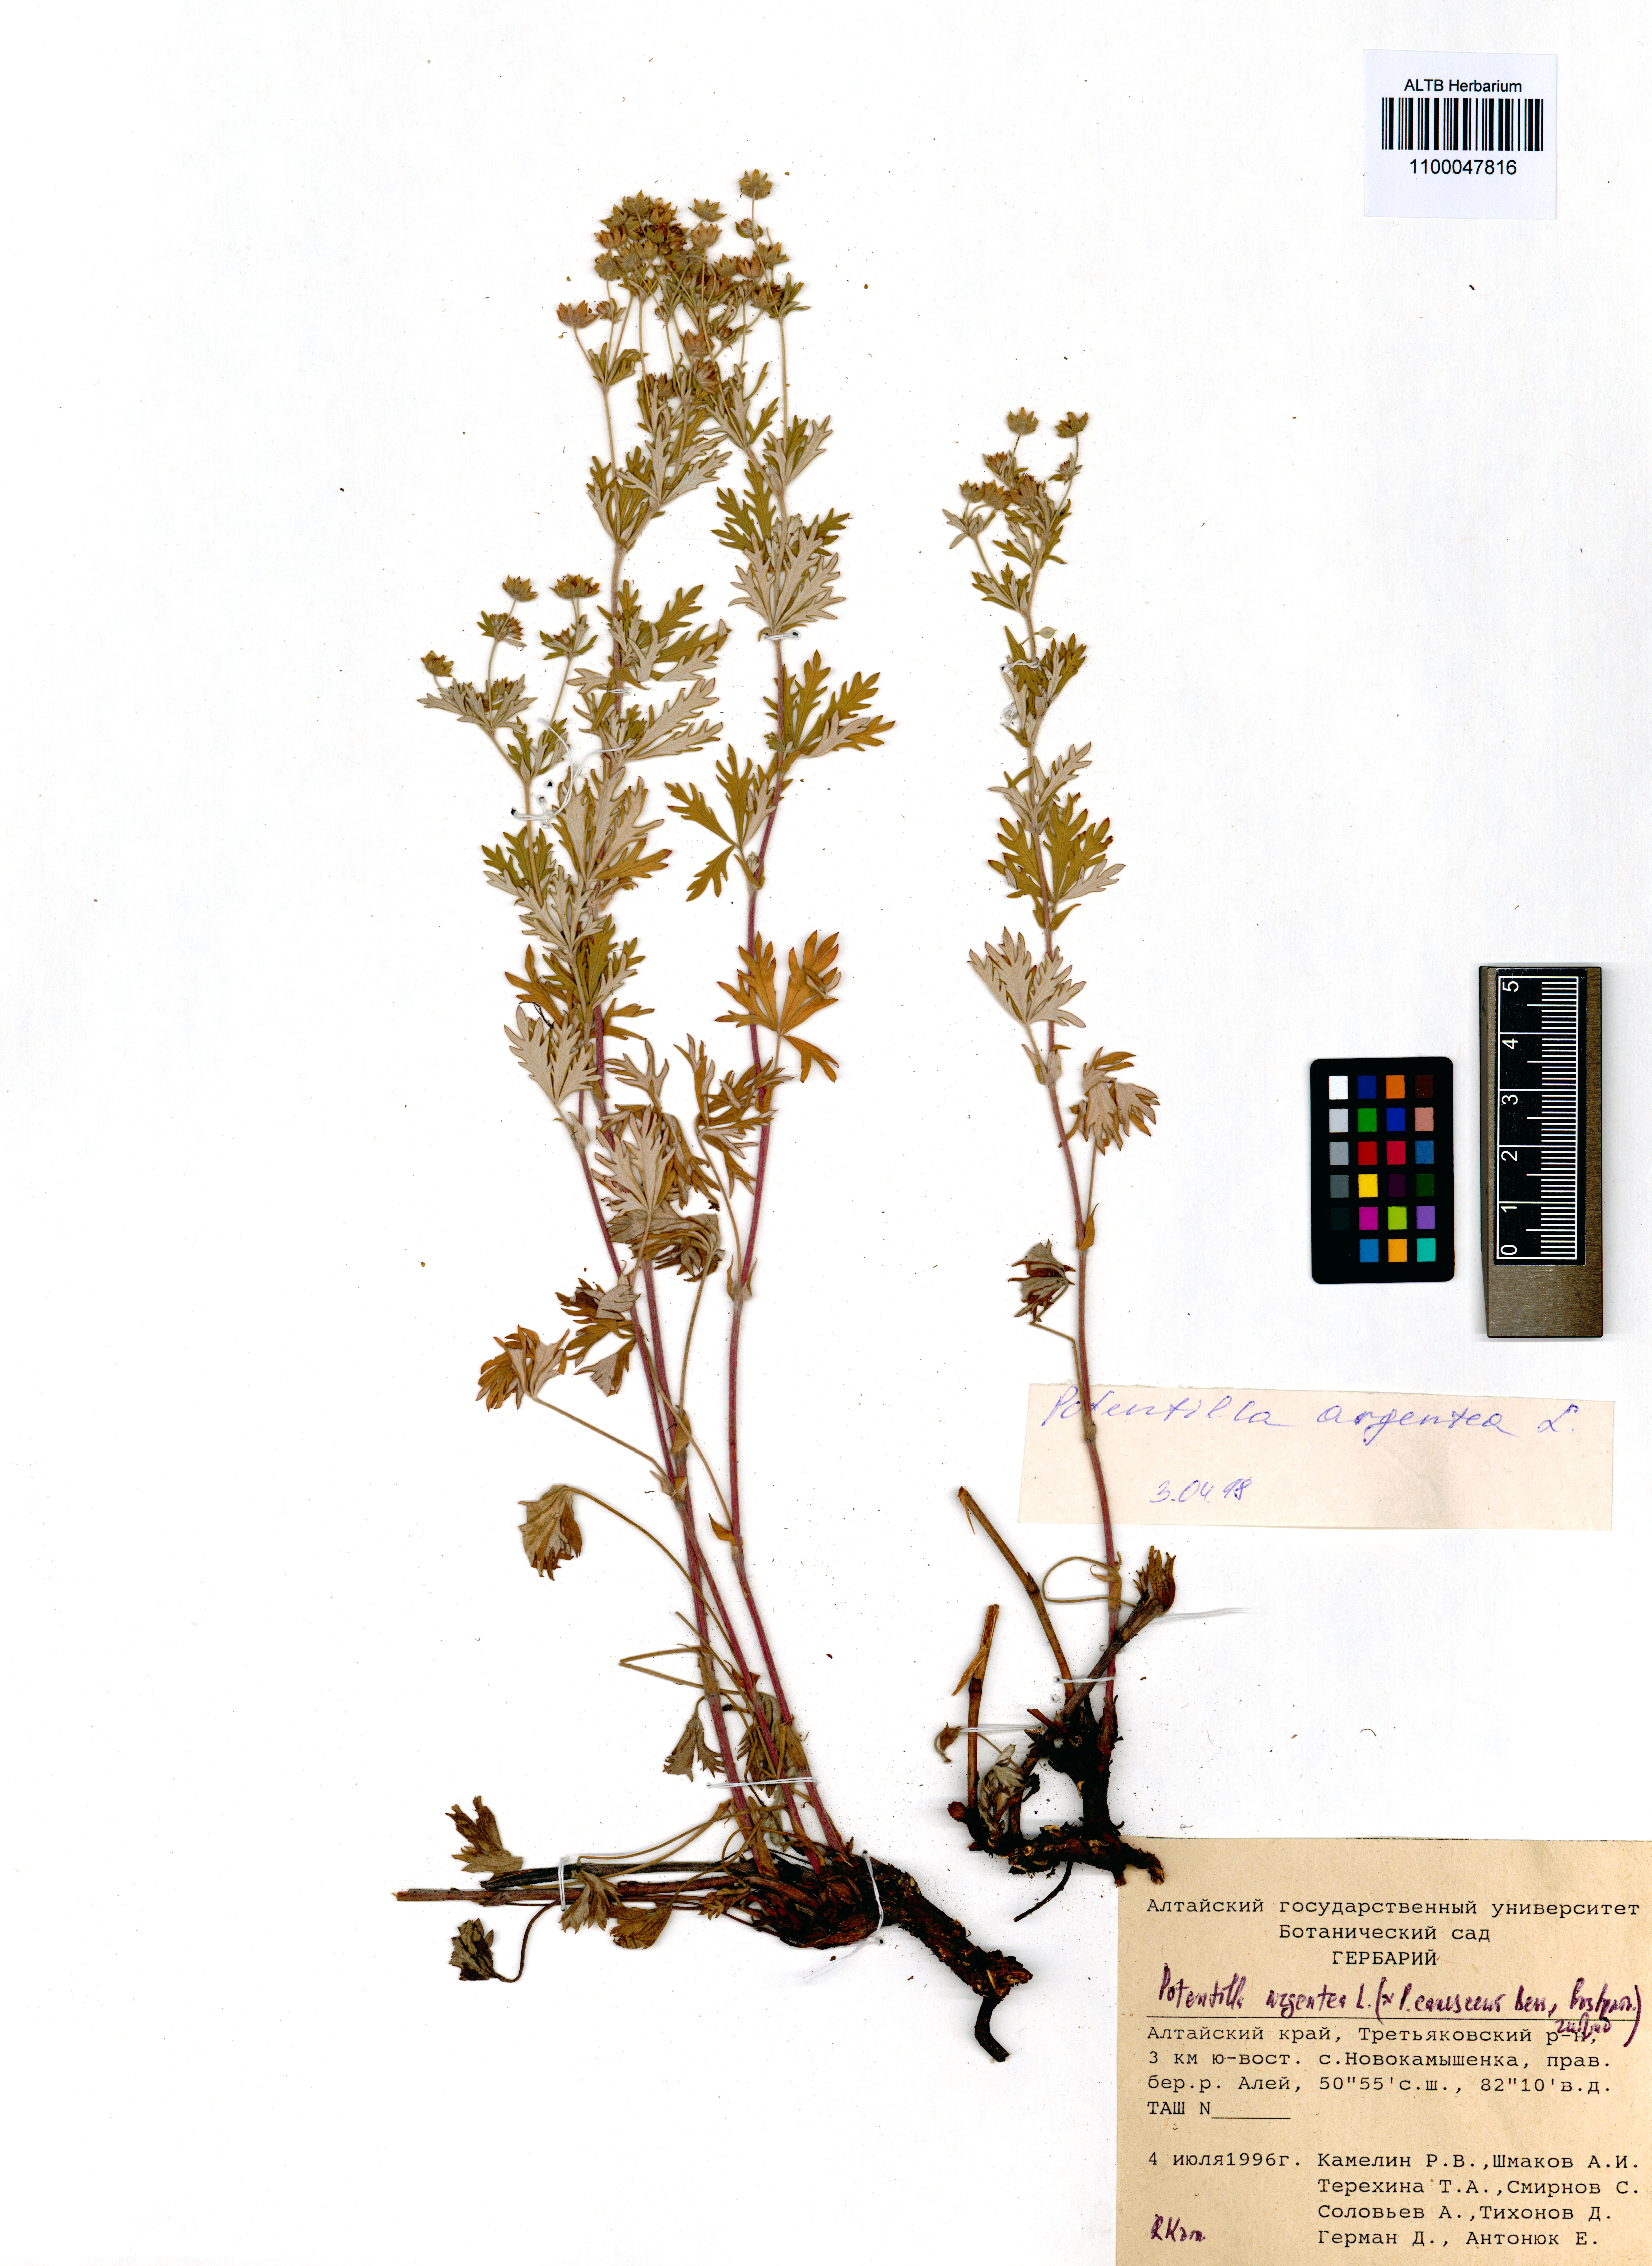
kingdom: Plantae
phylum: Tracheophyta
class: Magnoliopsida
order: Rosales
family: Rosaceae
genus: Potentilla
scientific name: Potentilla argentea
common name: Hoary cinquefoil
